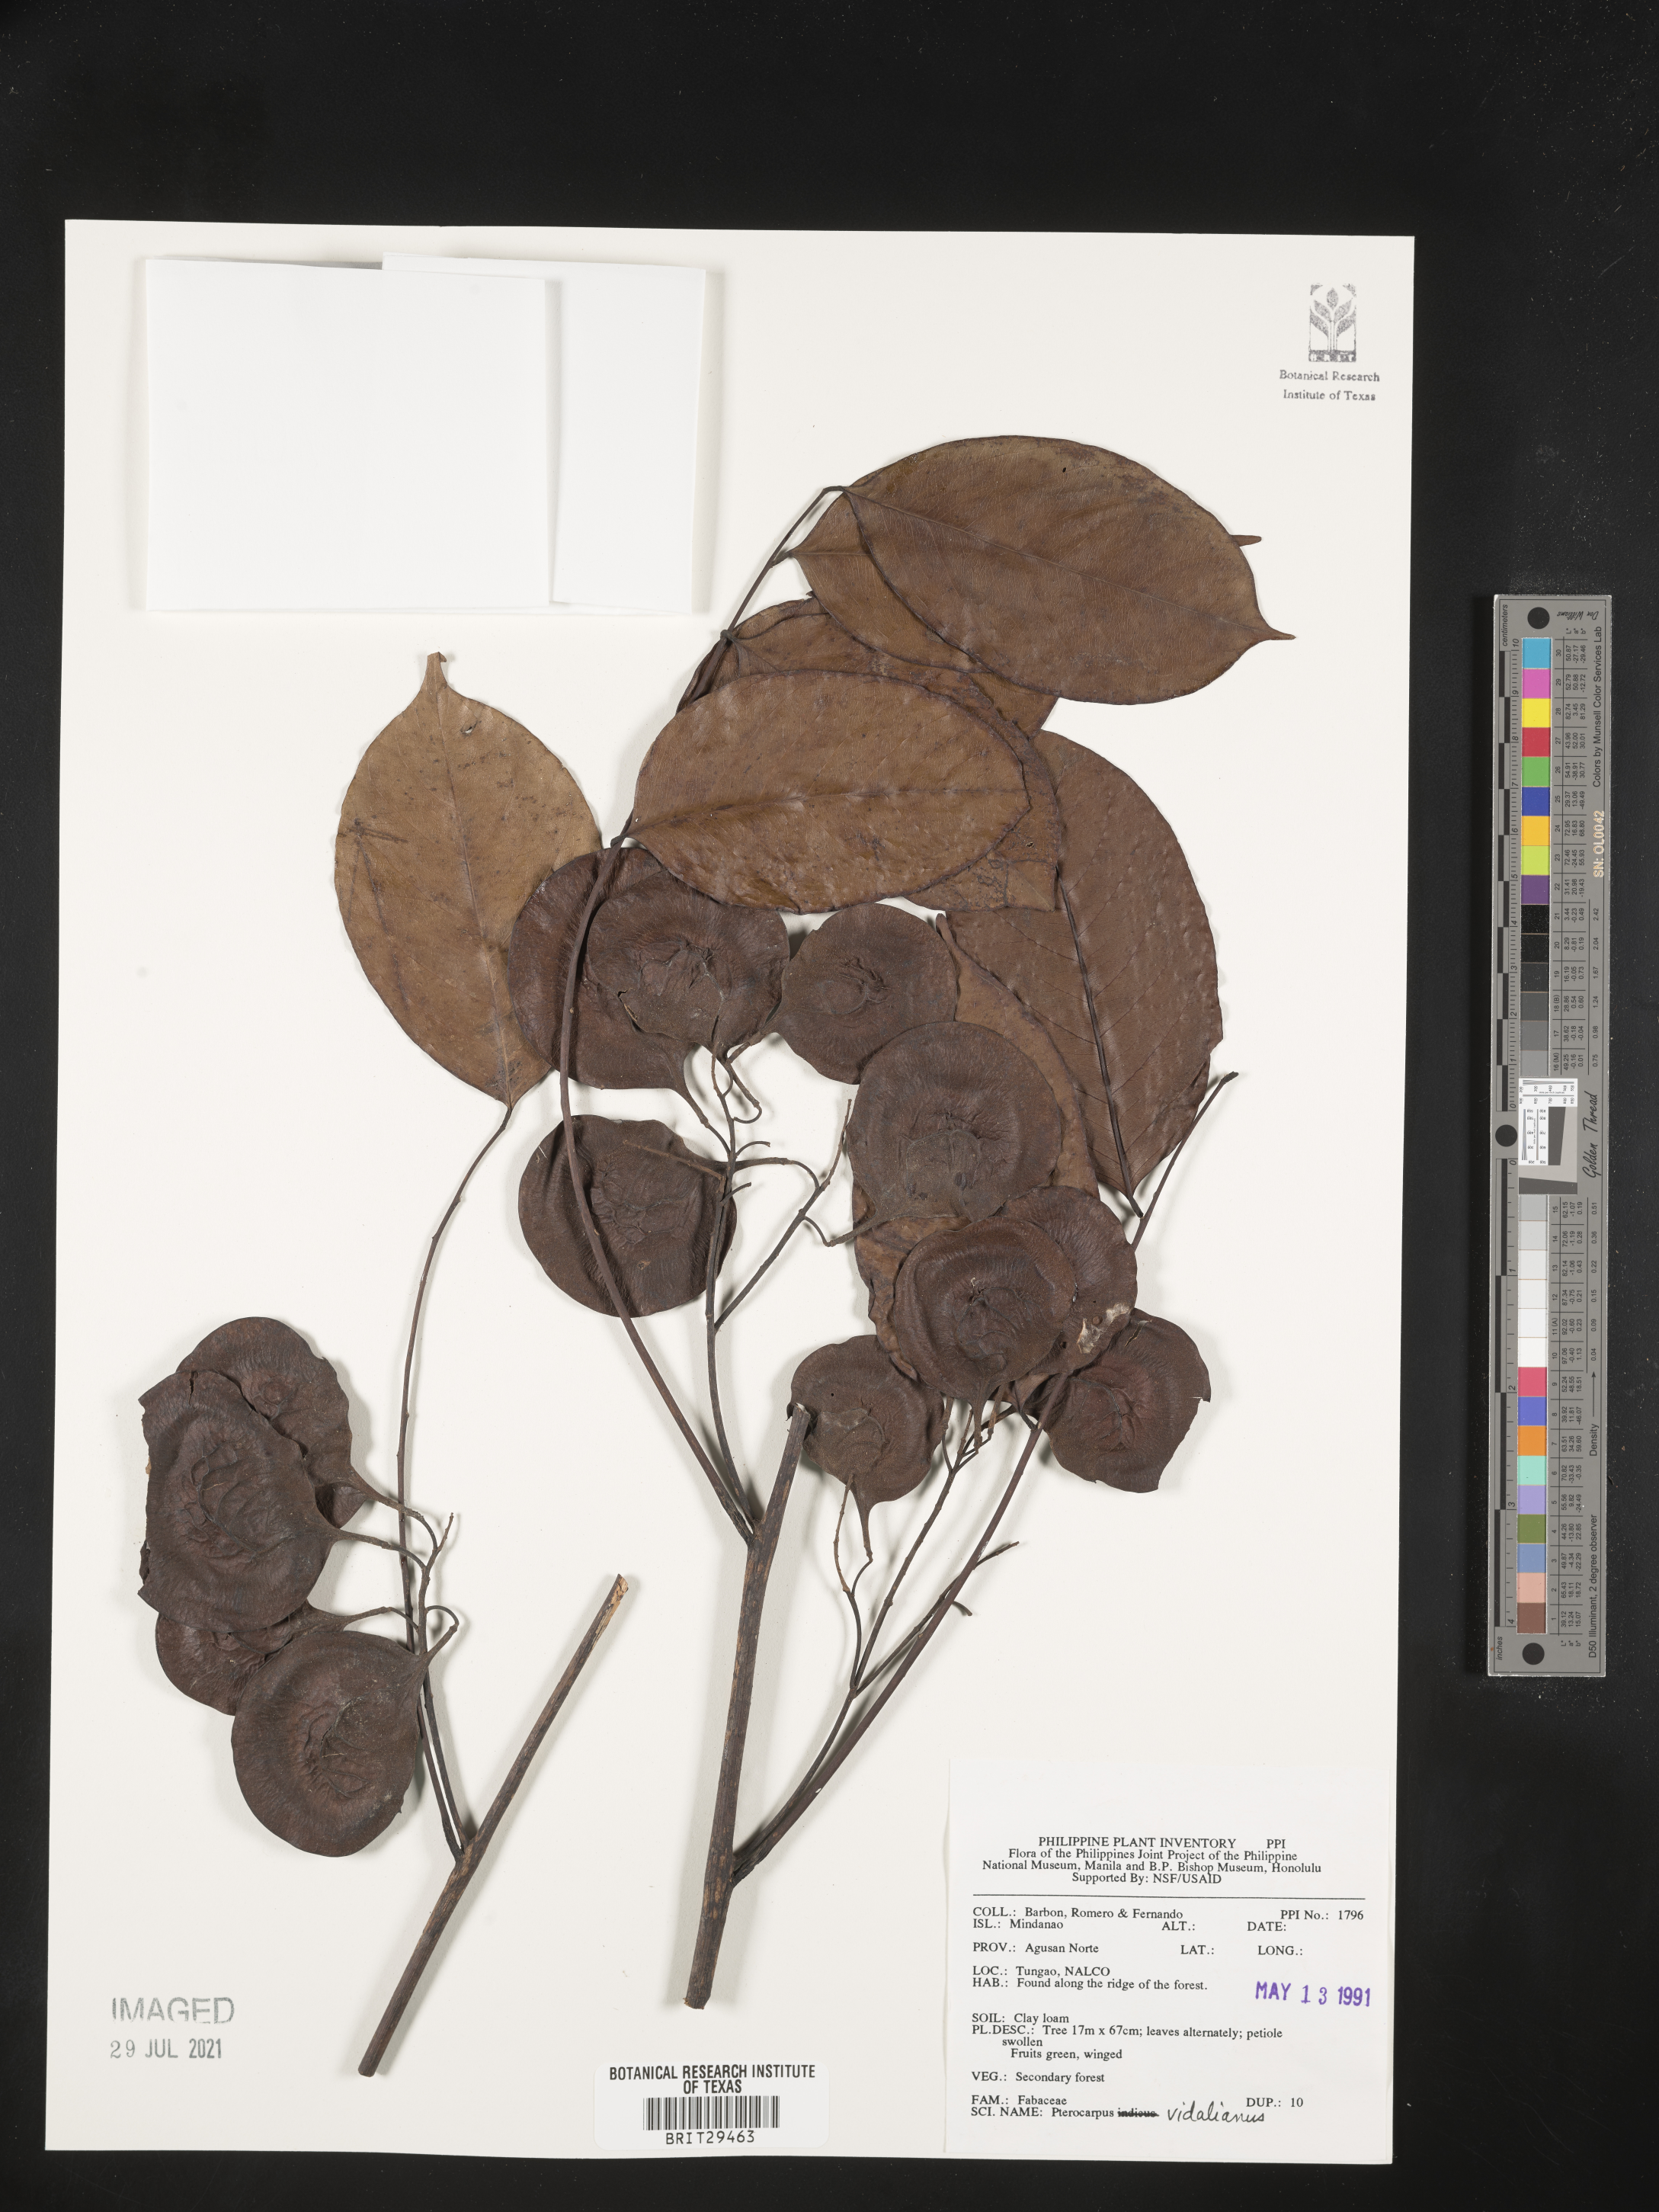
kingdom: Plantae
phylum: Tracheophyta
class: Magnoliopsida
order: Fabales
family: Fabaceae
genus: Pterocarpus
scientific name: Pterocarpus vidalianus
